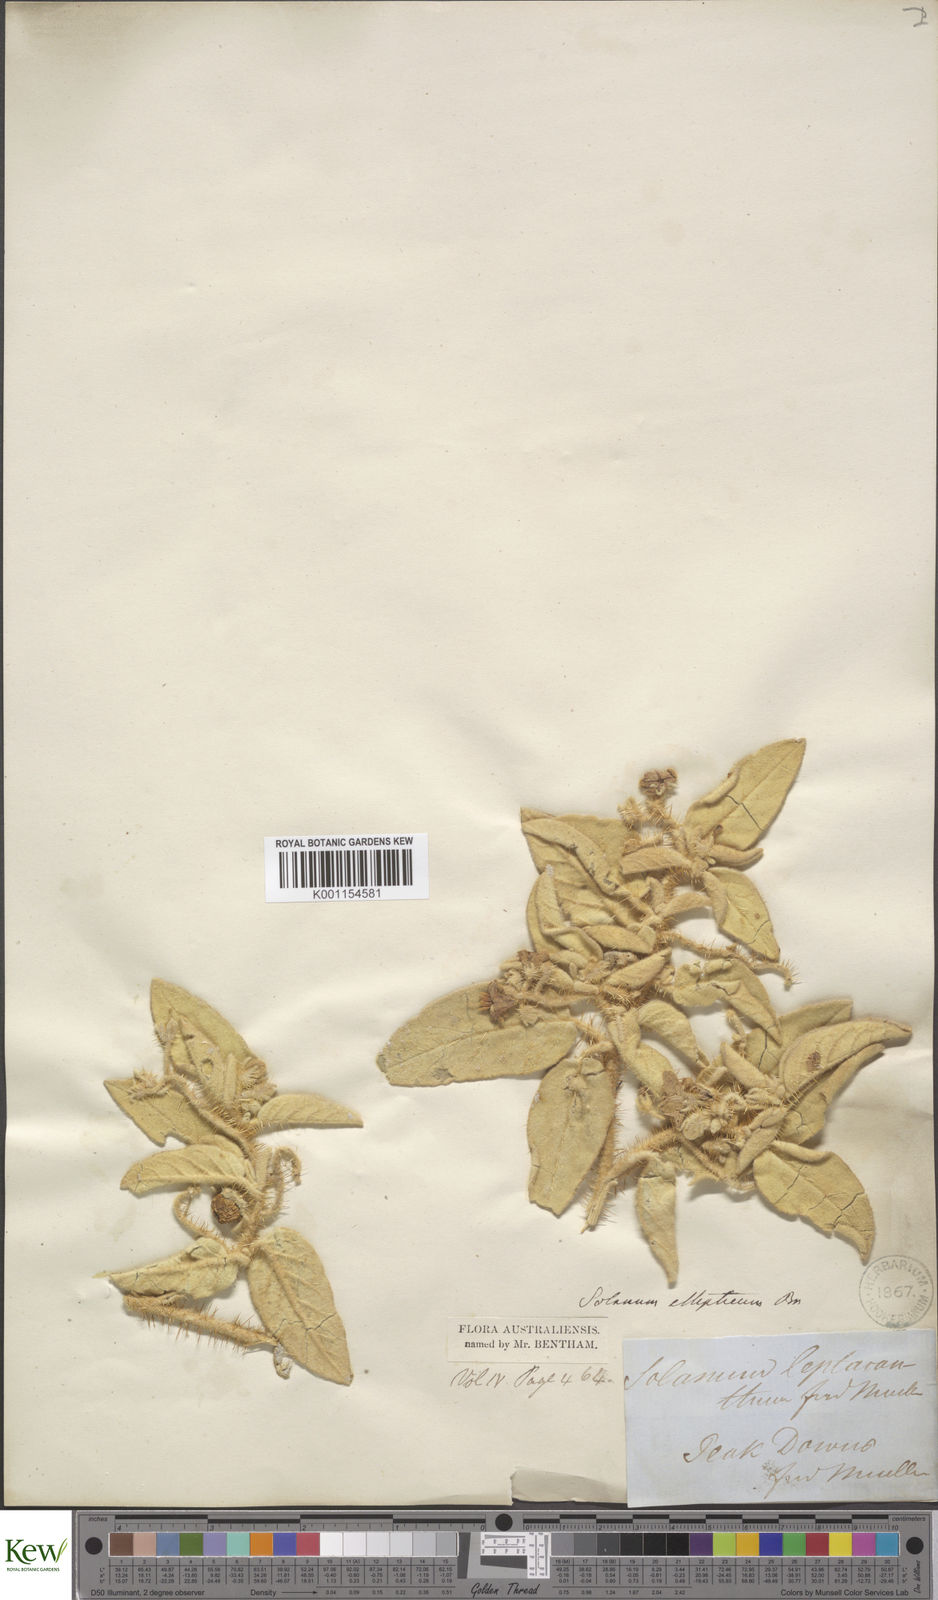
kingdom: Plantae
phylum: Tracheophyta
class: Magnoliopsida
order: Solanales
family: Solanaceae
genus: Solanum
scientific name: Solanum ellipticum
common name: Potato-bush
